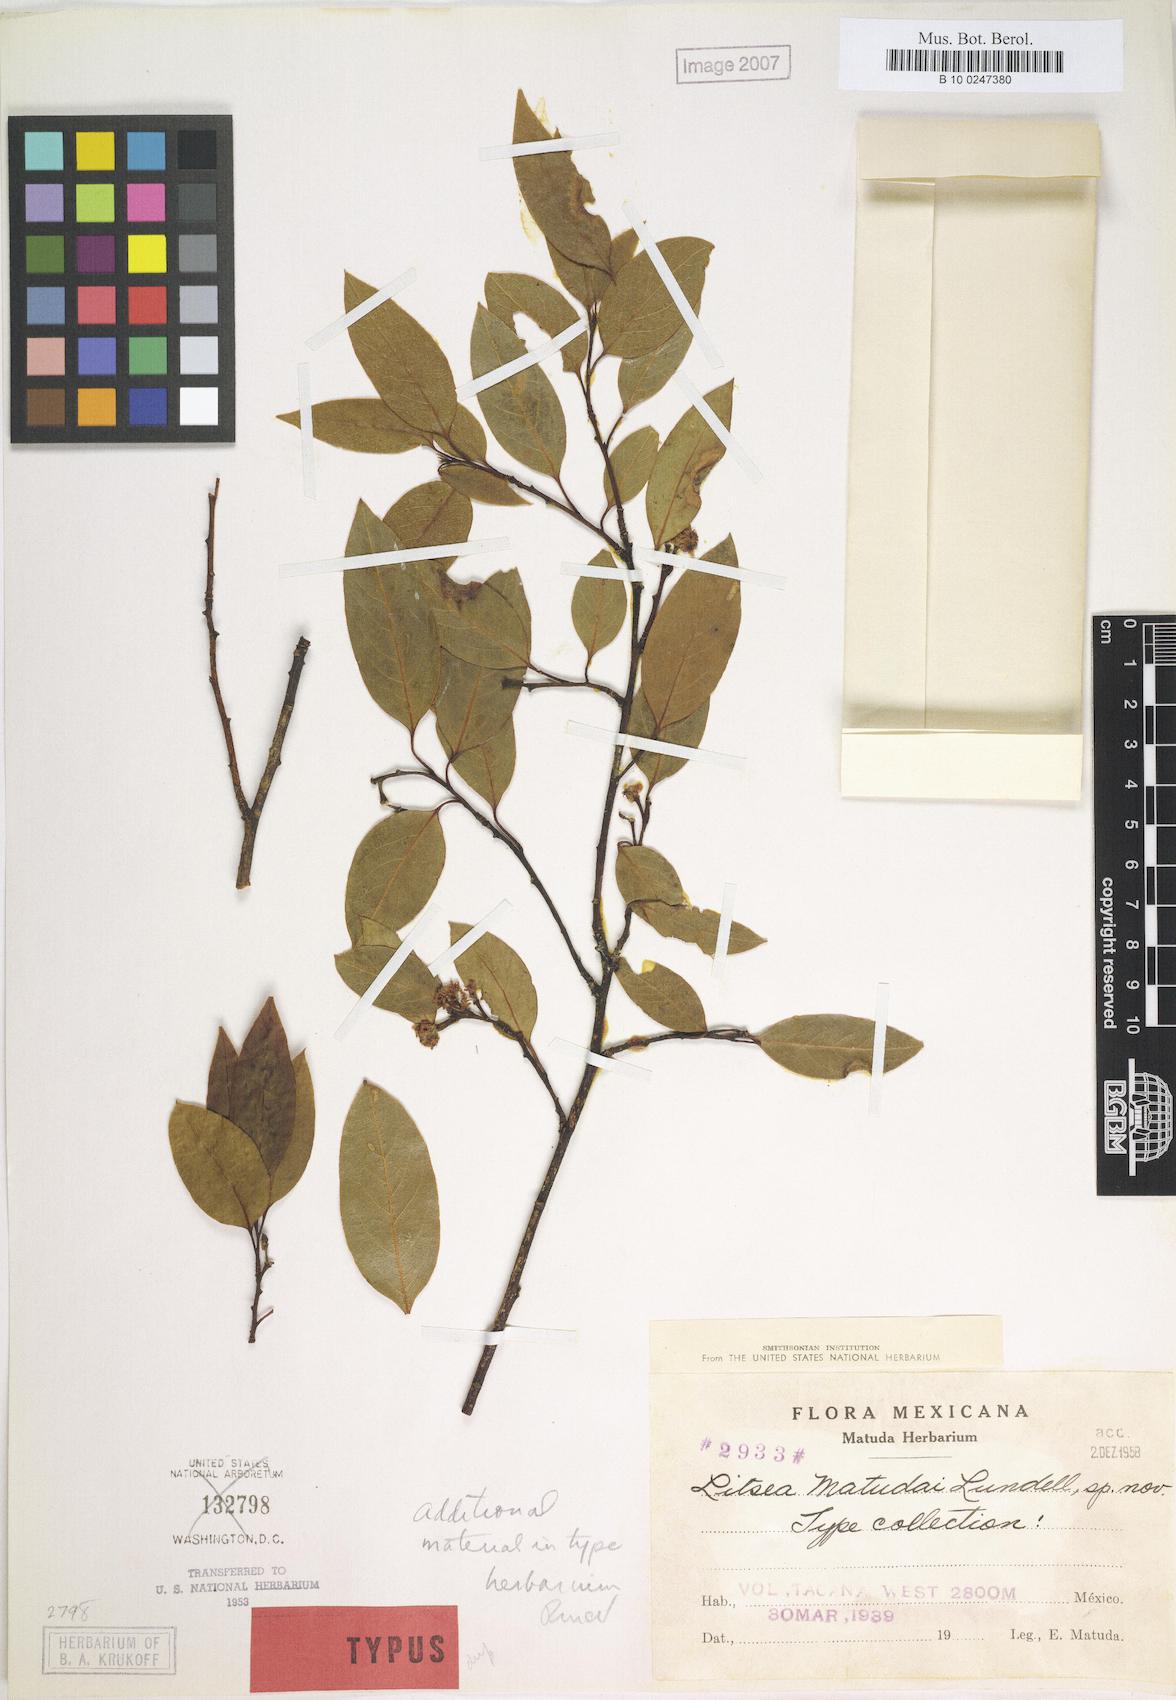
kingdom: Plantae
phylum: Tracheophyta
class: Magnoliopsida
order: Laurales
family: Lauraceae
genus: Licaria
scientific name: Licaria triandra
